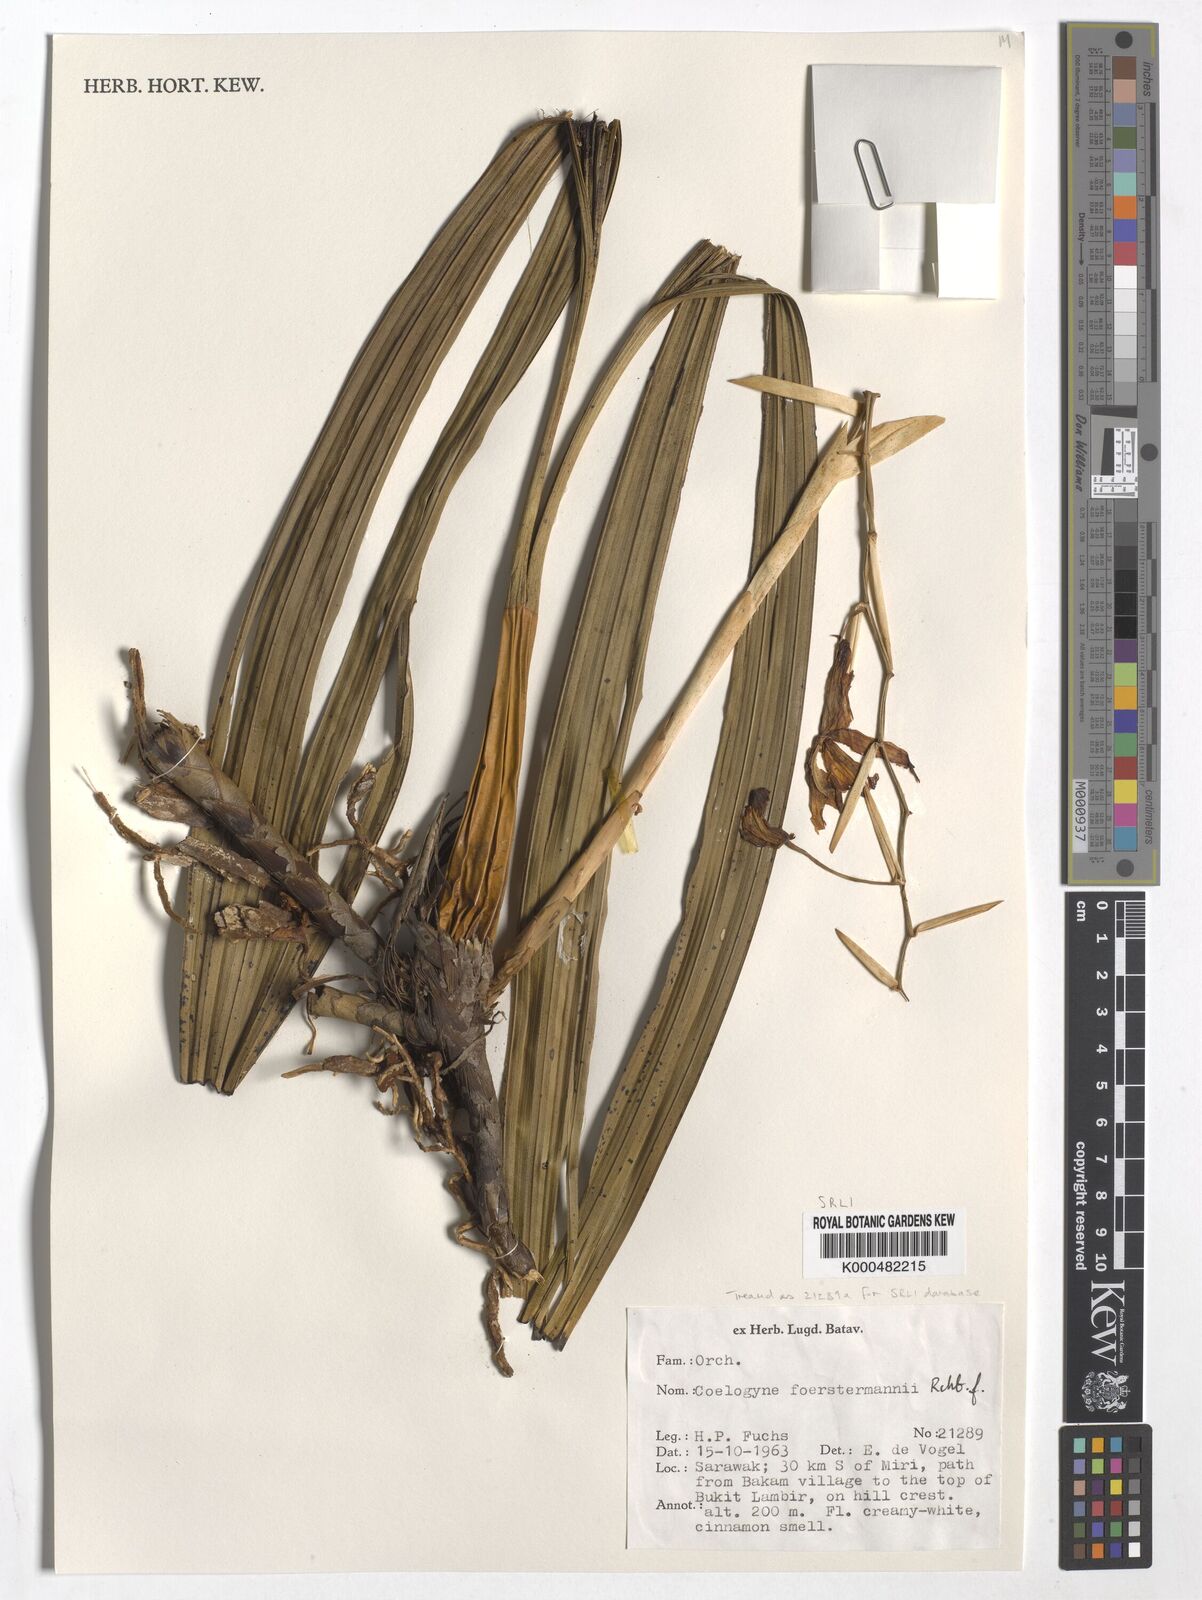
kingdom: Plantae
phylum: Tracheophyta
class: Liliopsida
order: Asparagales
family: Orchidaceae
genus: Coelogyne
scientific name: Coelogyne
